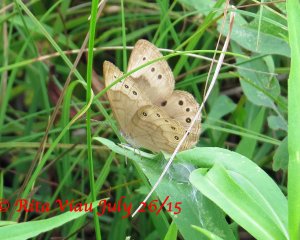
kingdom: Animalia
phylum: Arthropoda
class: Insecta
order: Lepidoptera
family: Nymphalidae
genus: Lethe
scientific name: Lethe eurydice
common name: Eyed Brown
